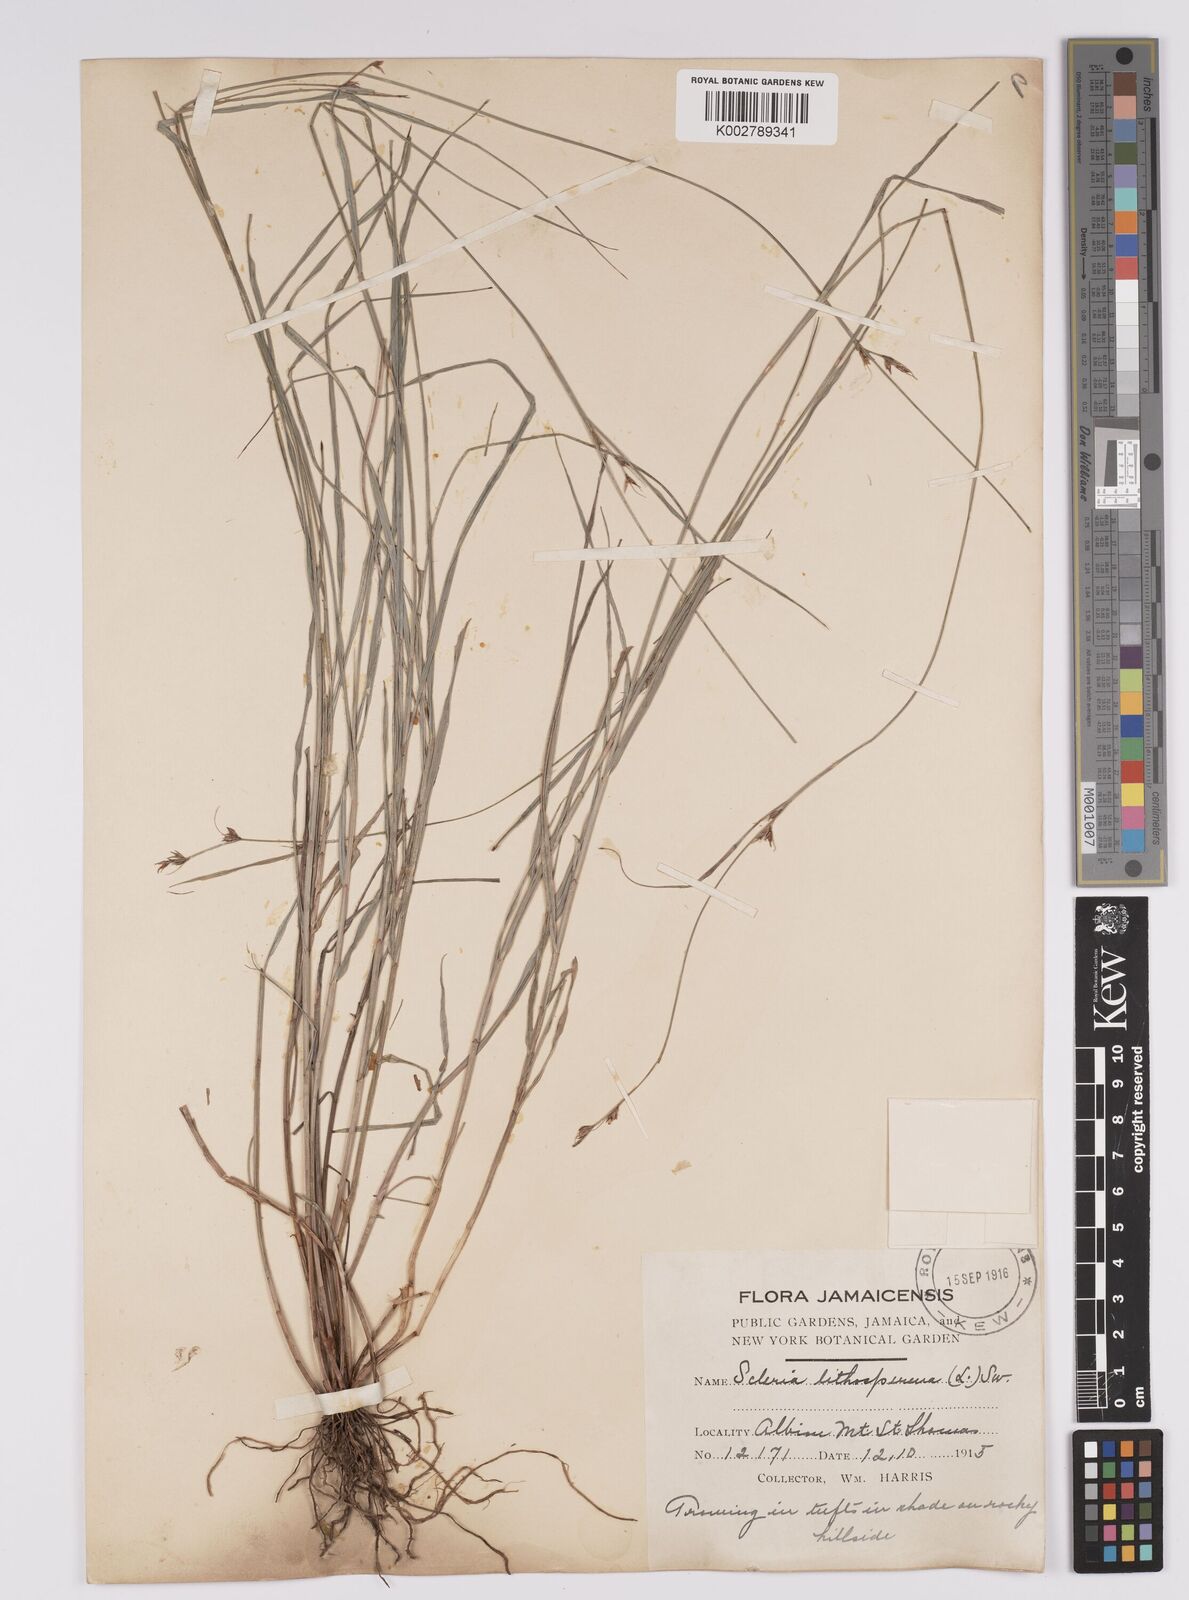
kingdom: Plantae
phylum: Tracheophyta
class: Liliopsida
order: Poales
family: Cyperaceae
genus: Scleria
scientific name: Scleria lithosperma
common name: Florida keys nut-rush
